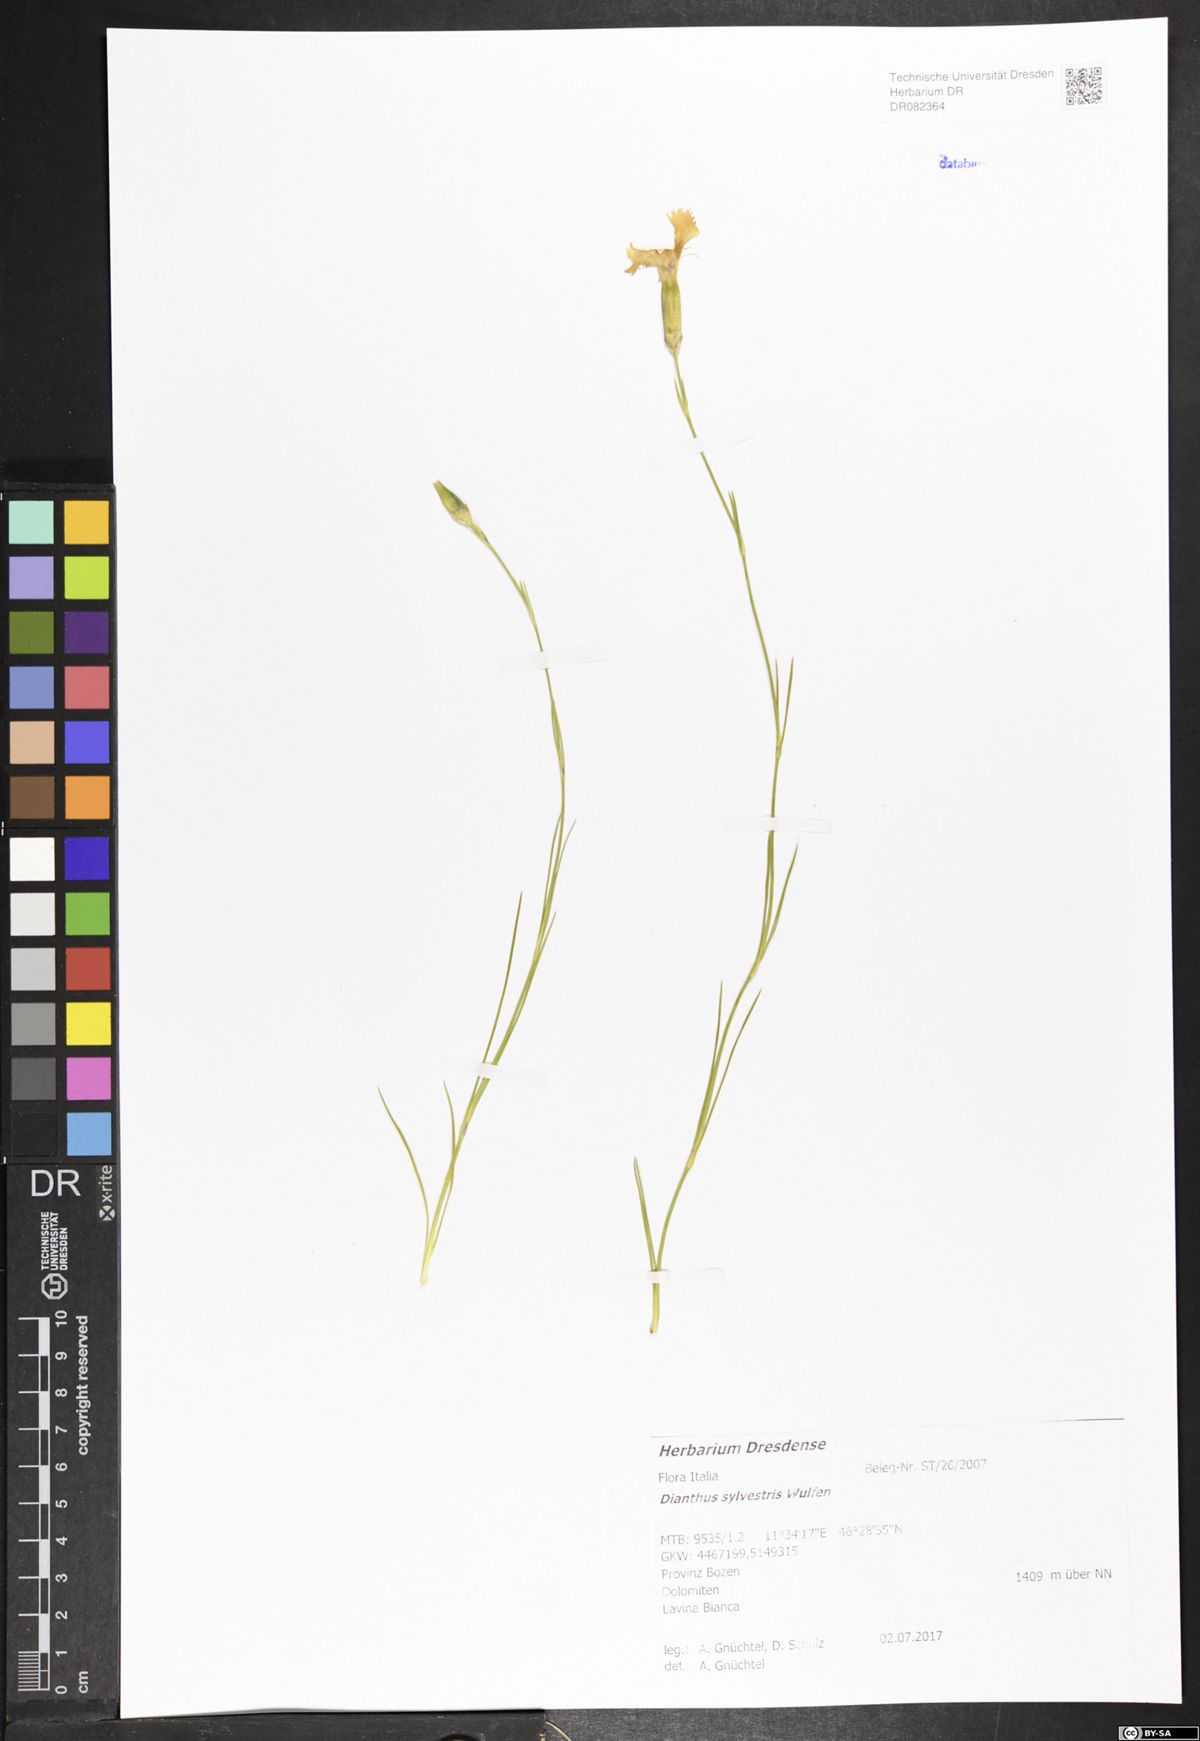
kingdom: Plantae
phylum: Tracheophyta
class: Magnoliopsida
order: Caryophyllales
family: Caryophyllaceae
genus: Dianthus
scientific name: Dianthus sylvestris
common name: Wood pink
